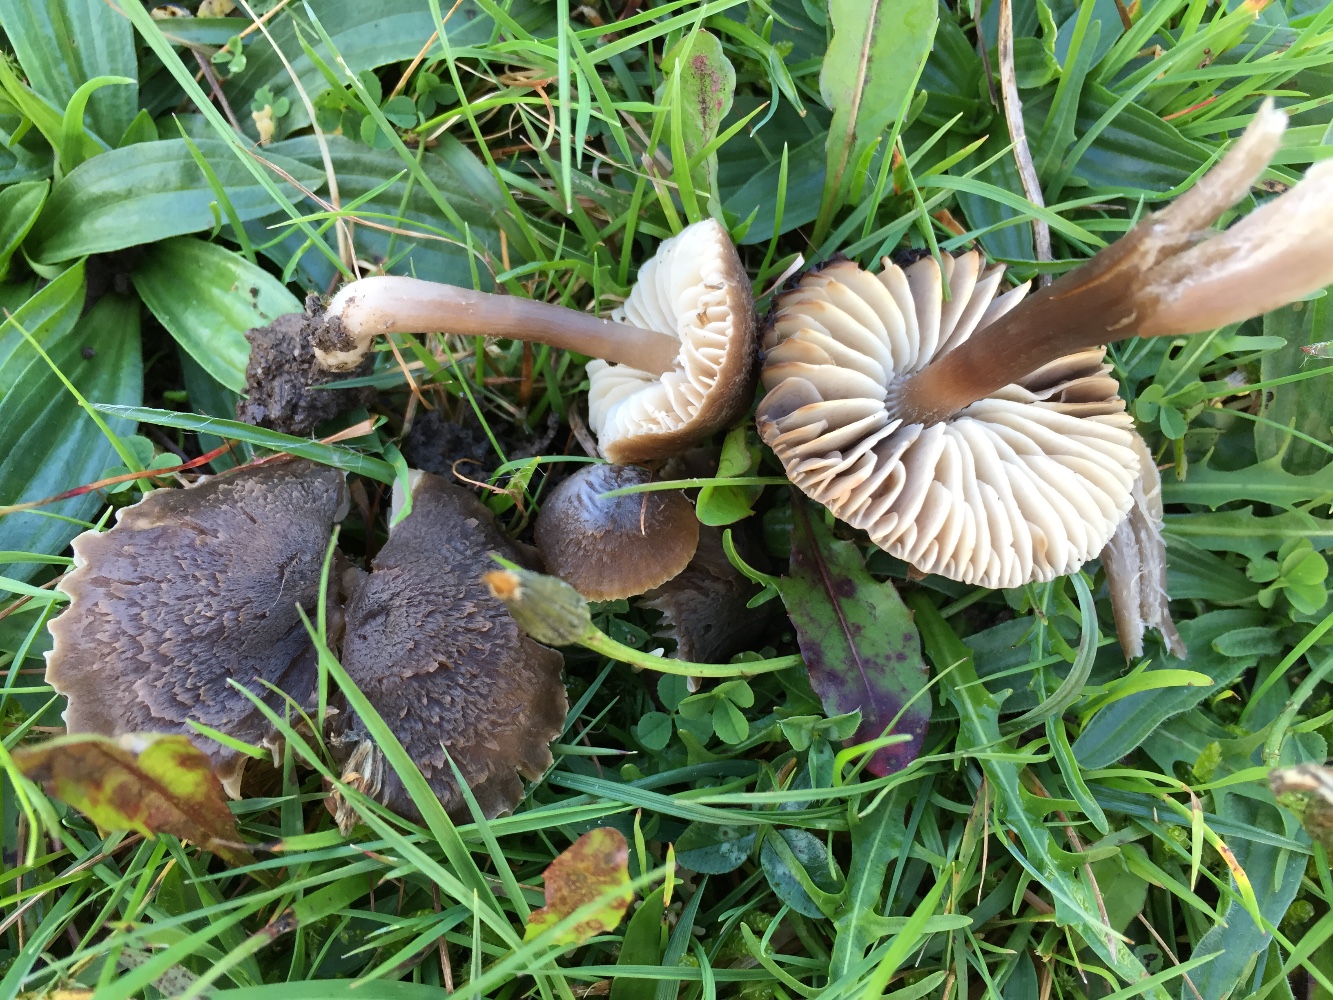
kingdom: Fungi
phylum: Basidiomycota
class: Agaricomycetes
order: Agaricales
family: Hygrophoraceae
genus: Neohygrocybe
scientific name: Neohygrocybe nitrata
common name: stinkende vokshat
